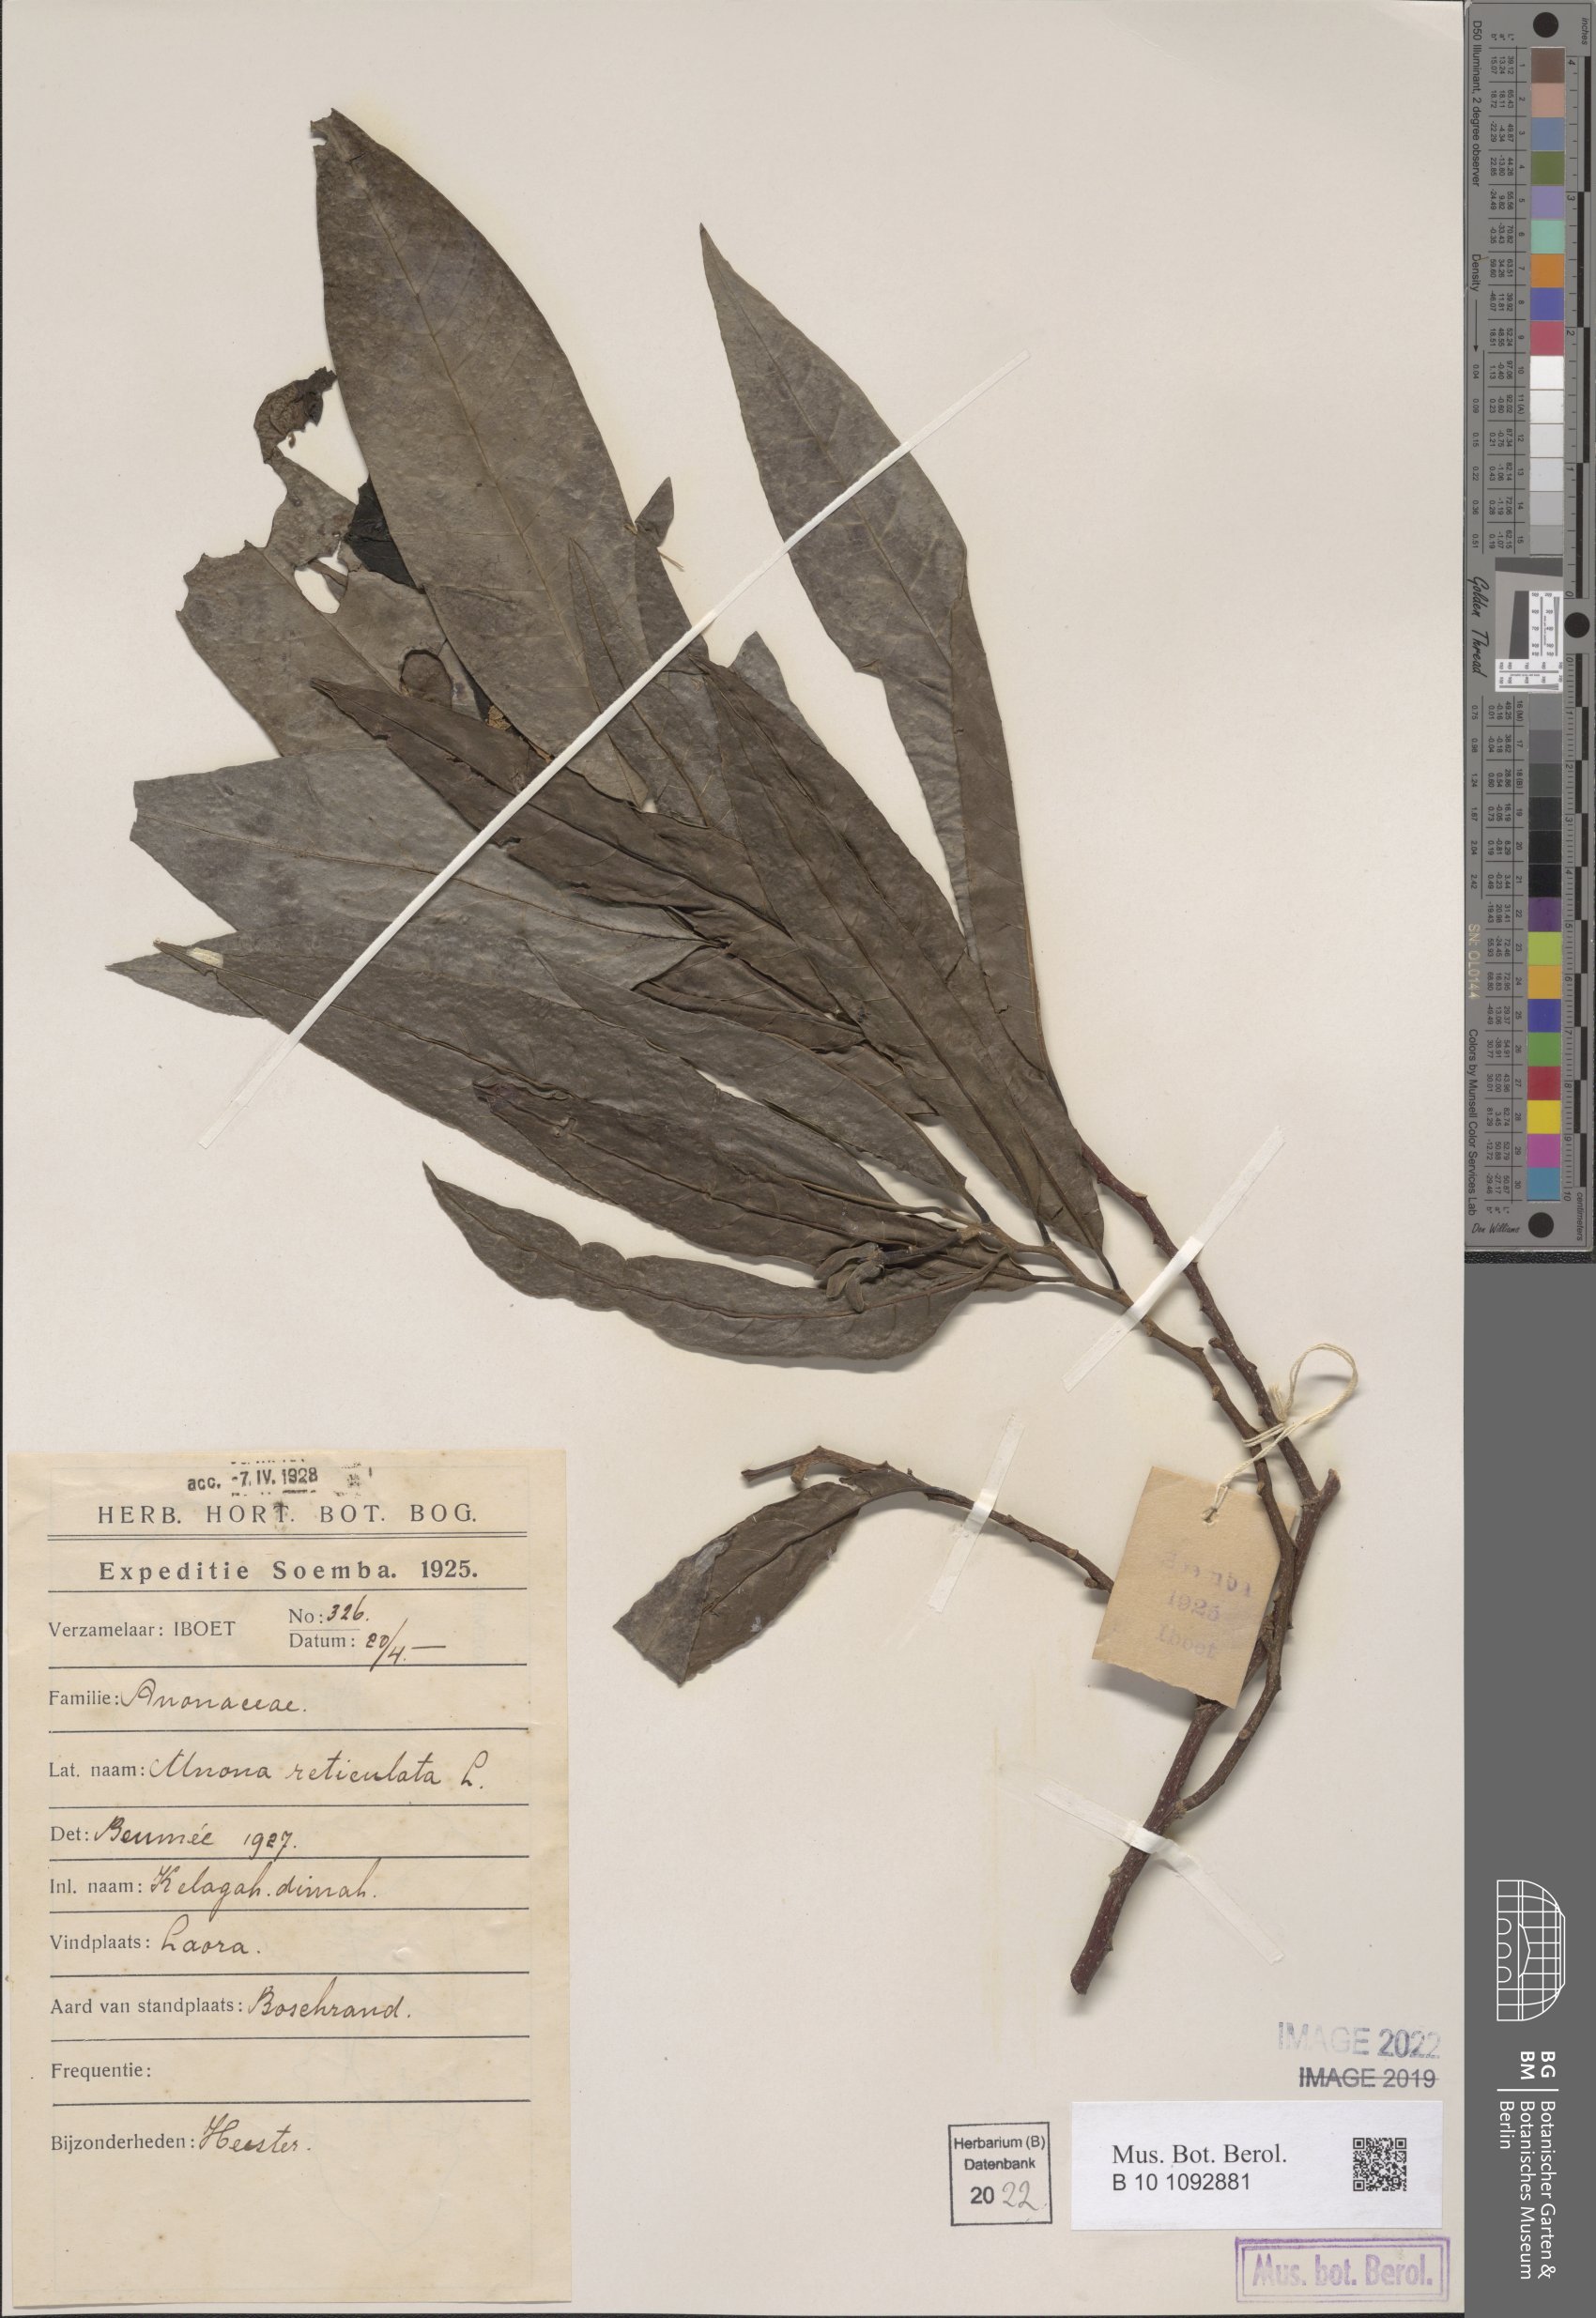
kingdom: Plantae
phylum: Tracheophyta
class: Magnoliopsida
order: Magnoliales
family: Annonaceae
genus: Annona
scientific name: Annona reticulata
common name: Custard apple
